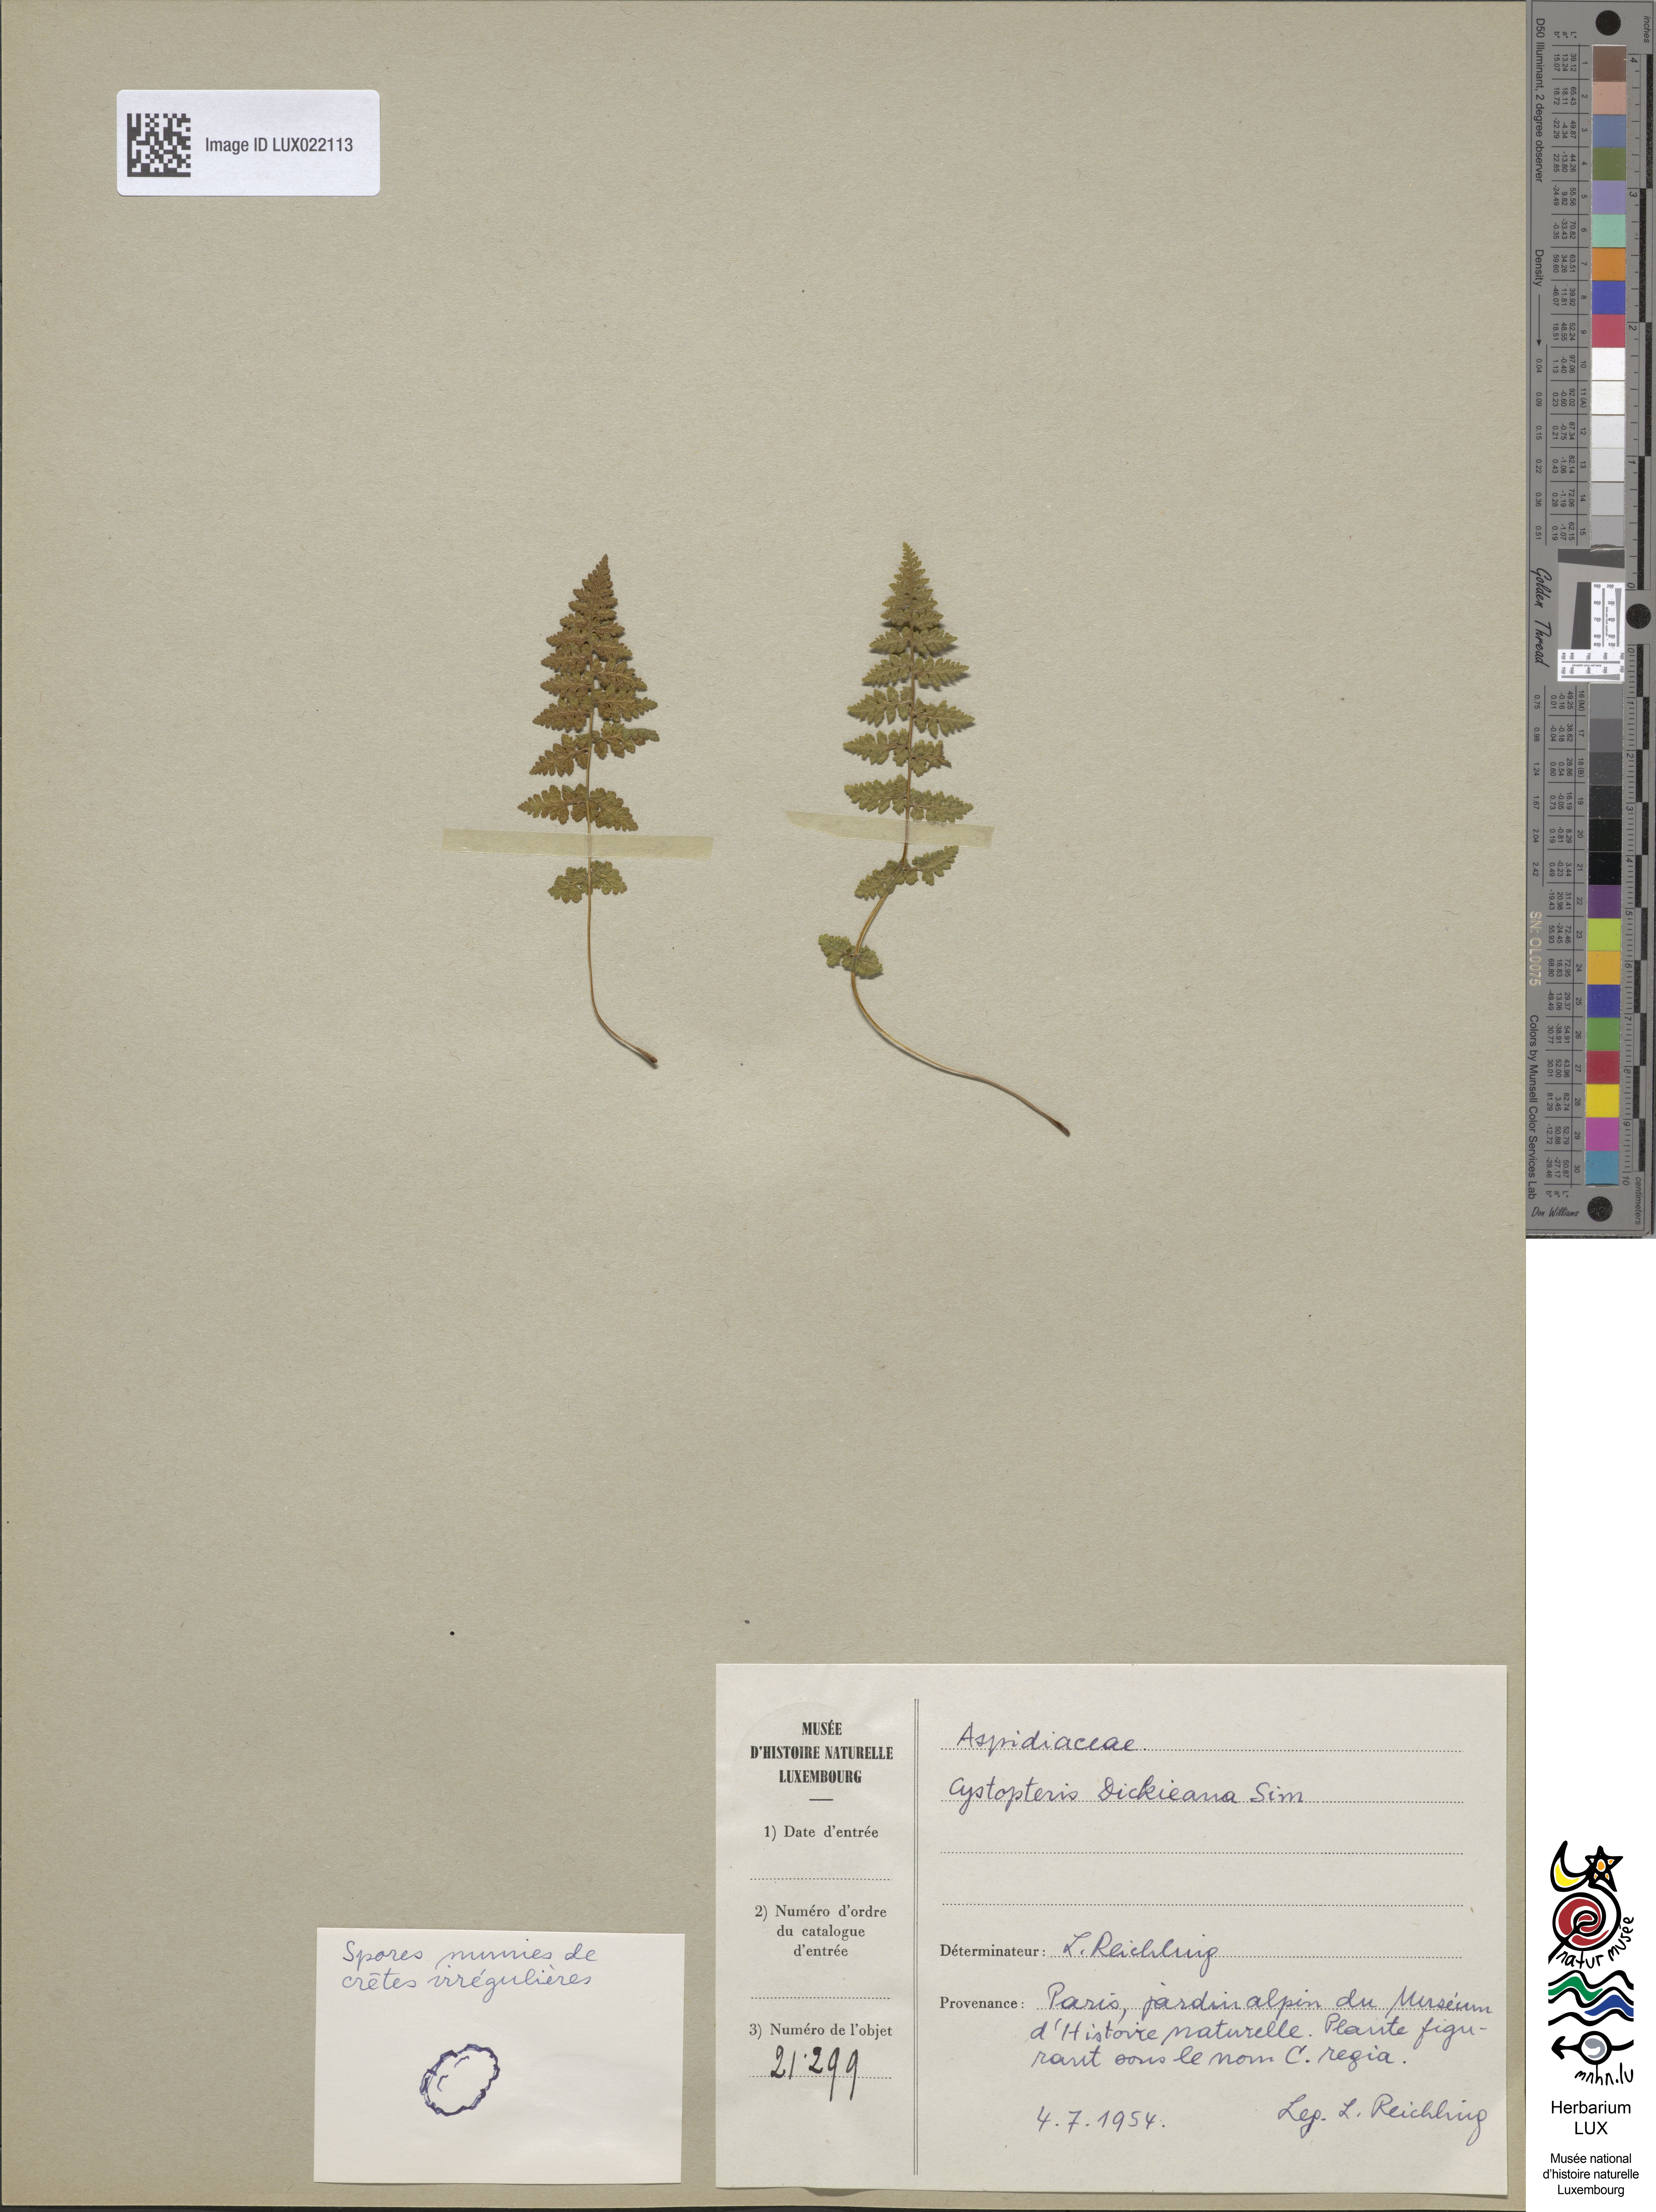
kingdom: Plantae
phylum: Tracheophyta
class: Polypodiopsida
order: Polypodiales
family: Cystopteridaceae
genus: Cystopteris
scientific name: Cystopteris dickieana
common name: Dickie's bladder-fern
